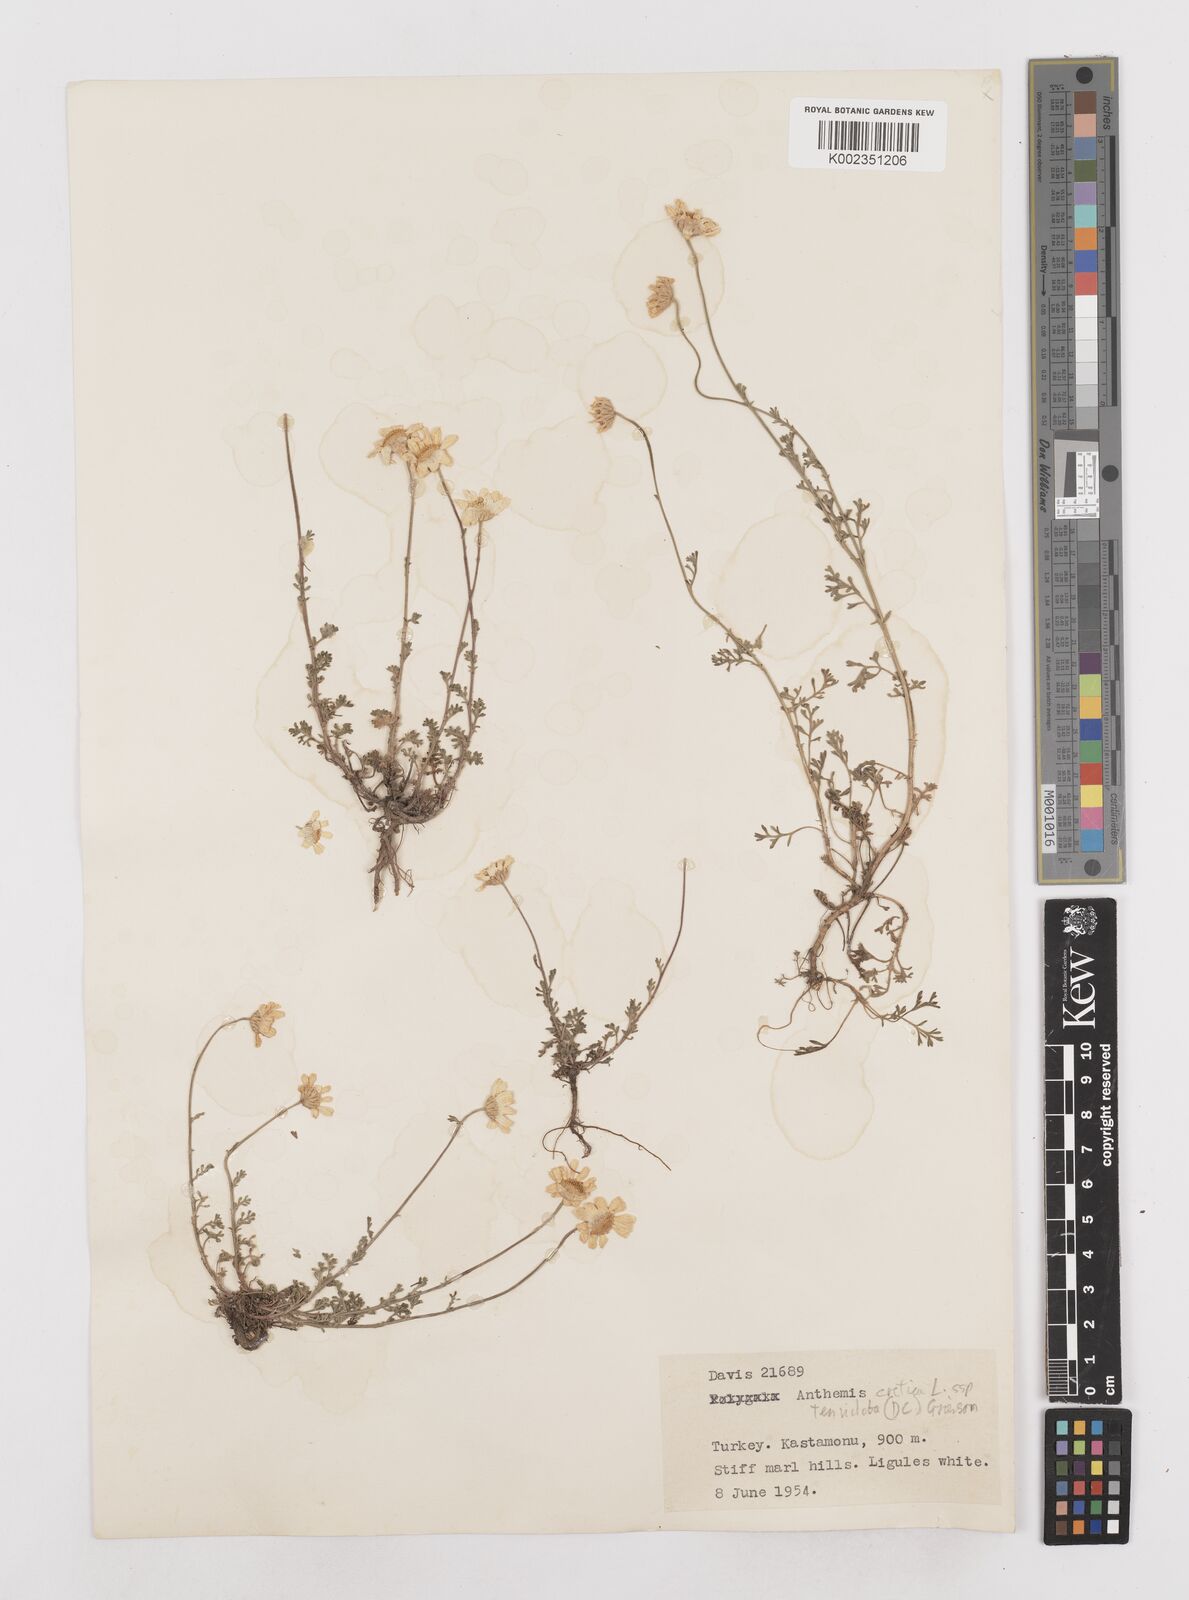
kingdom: Plantae
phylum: Tracheophyta
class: Magnoliopsida
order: Asterales
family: Asteraceae
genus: Anthemis
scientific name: Anthemis cretica
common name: Mountain dog-daisy
